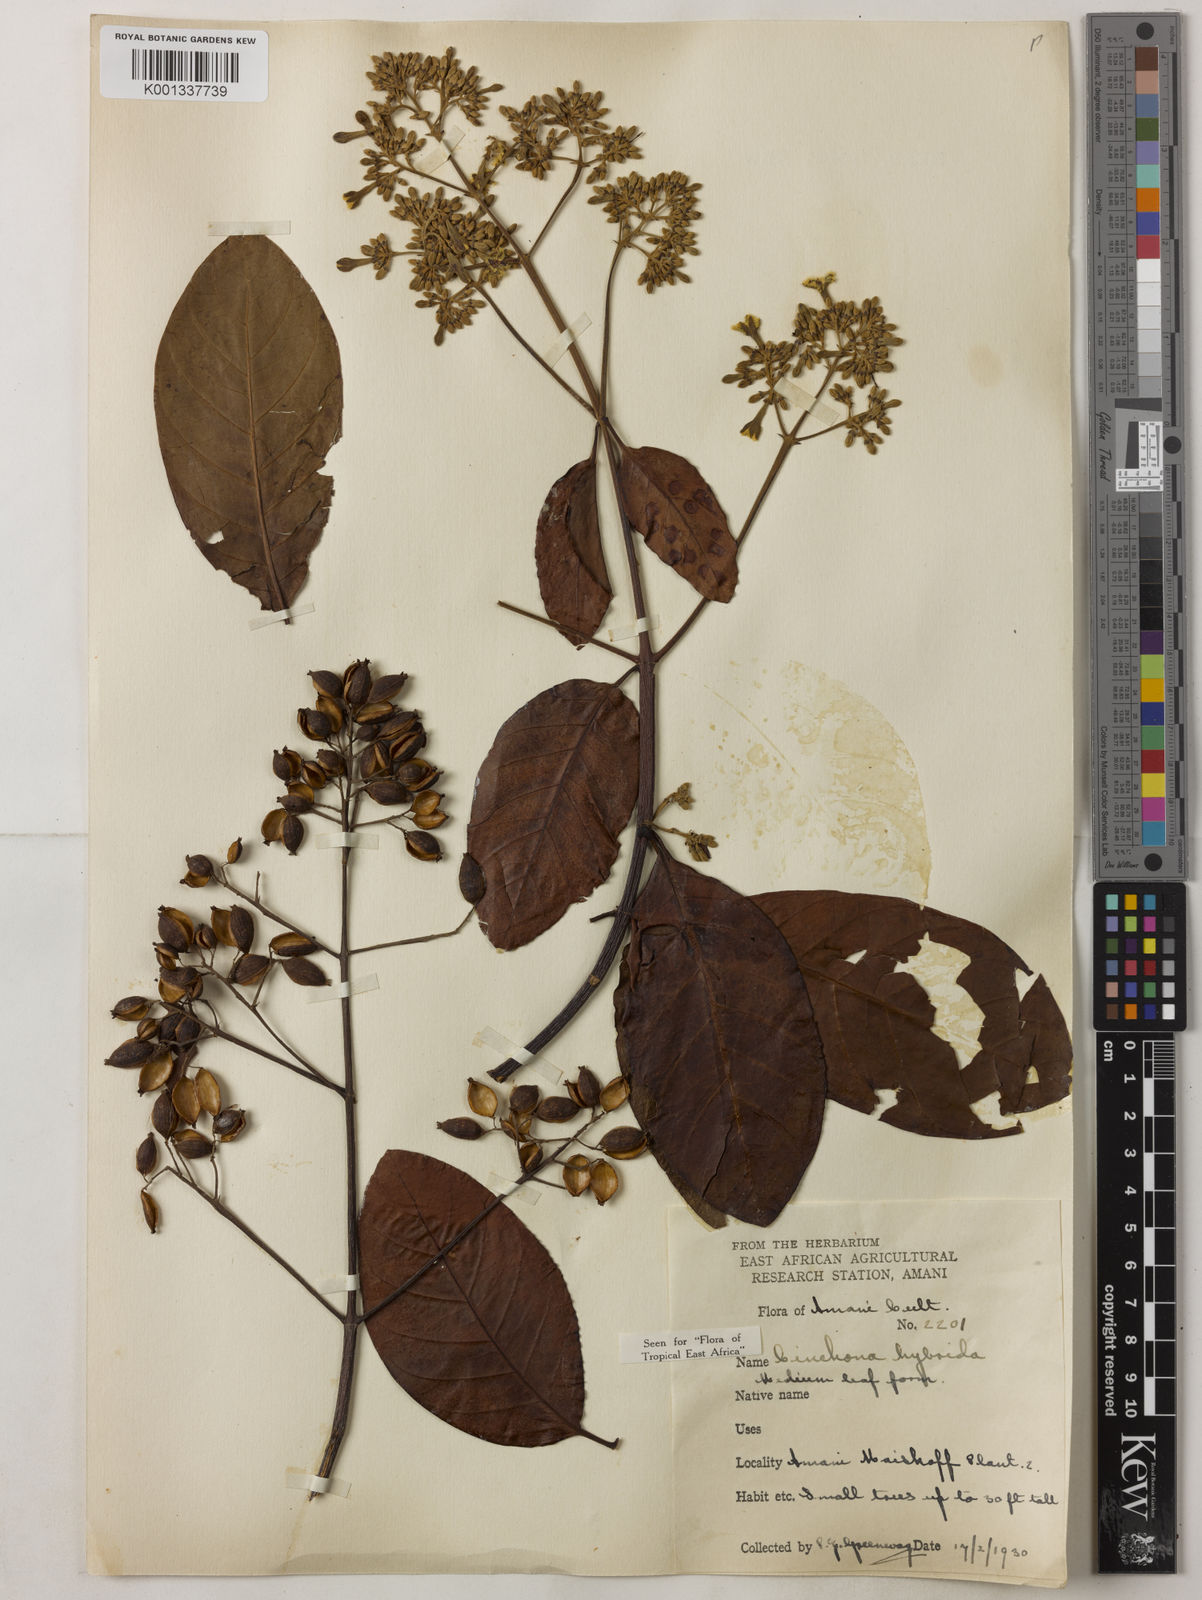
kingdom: Plantae
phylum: Tracheophyta
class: Magnoliopsida
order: Gentianales
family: Rubiaceae
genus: Cinchona
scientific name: Cinchona
